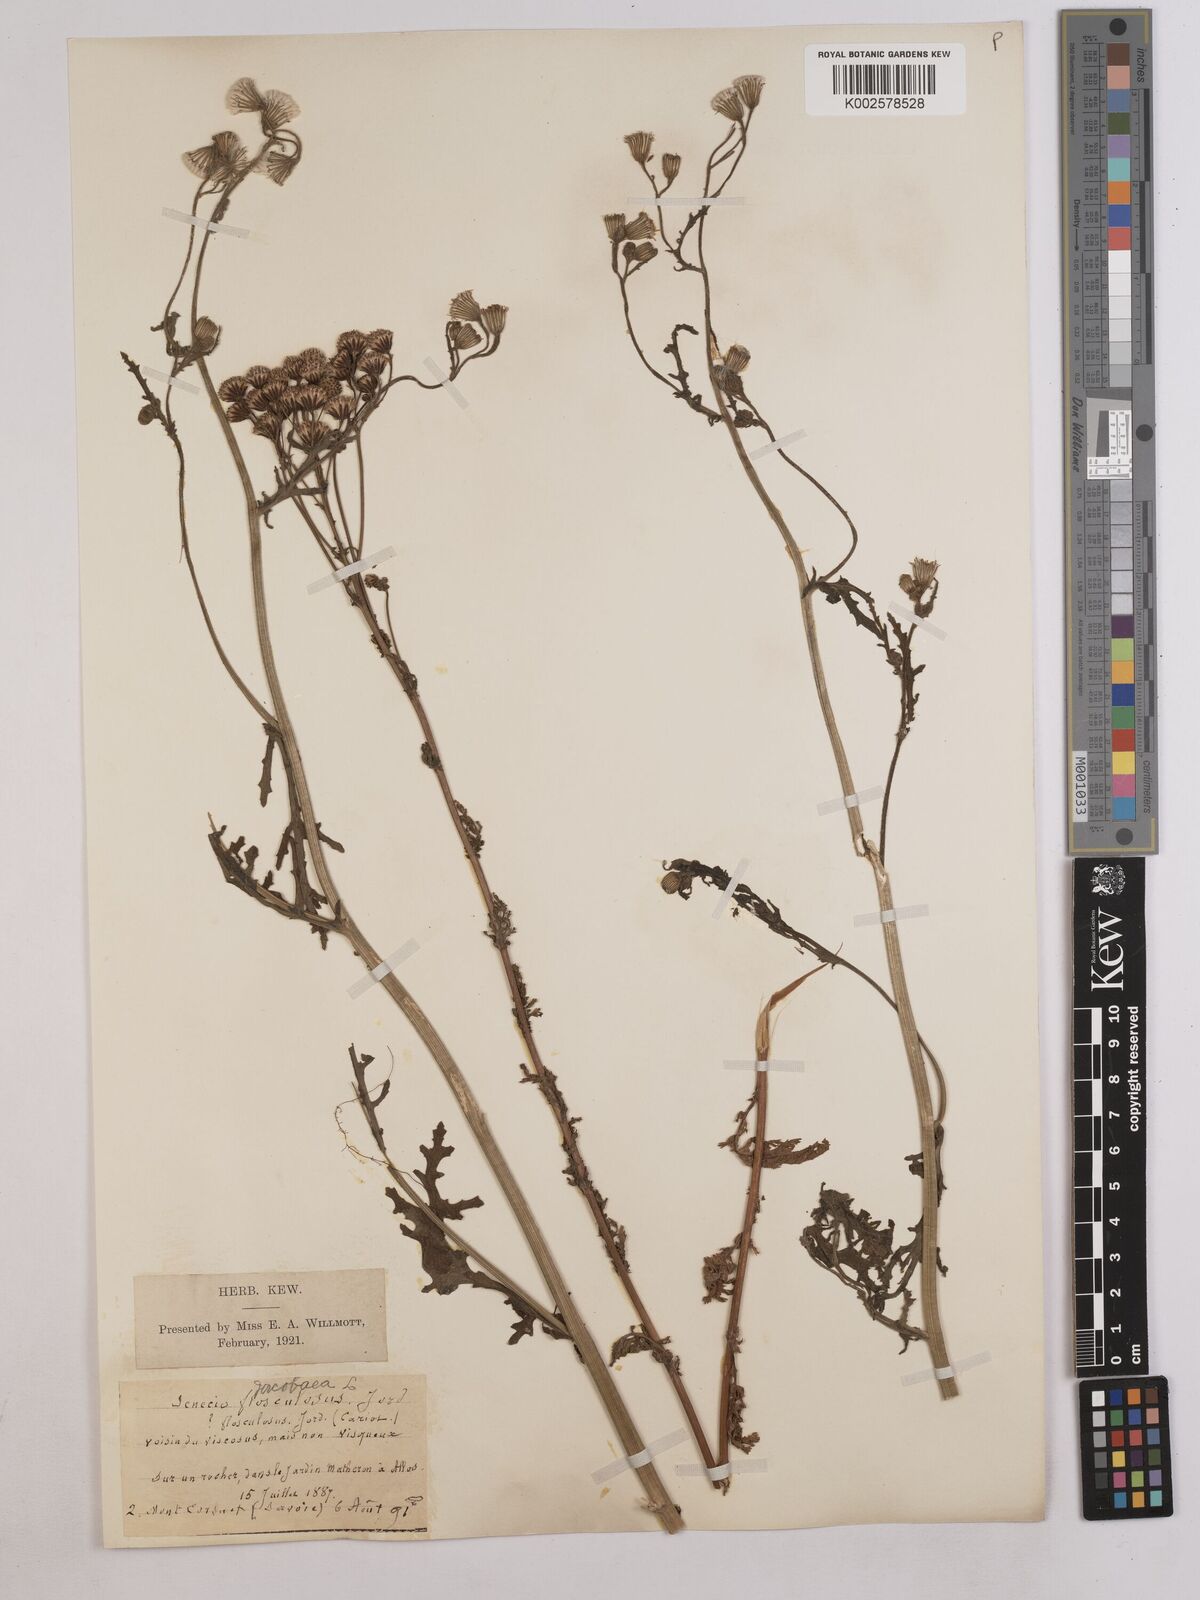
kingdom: Plantae
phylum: Tracheophyta
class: Magnoliopsida
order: Asterales
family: Asteraceae
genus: Jacobaea
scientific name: Jacobaea vulgaris
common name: Stinking willie
